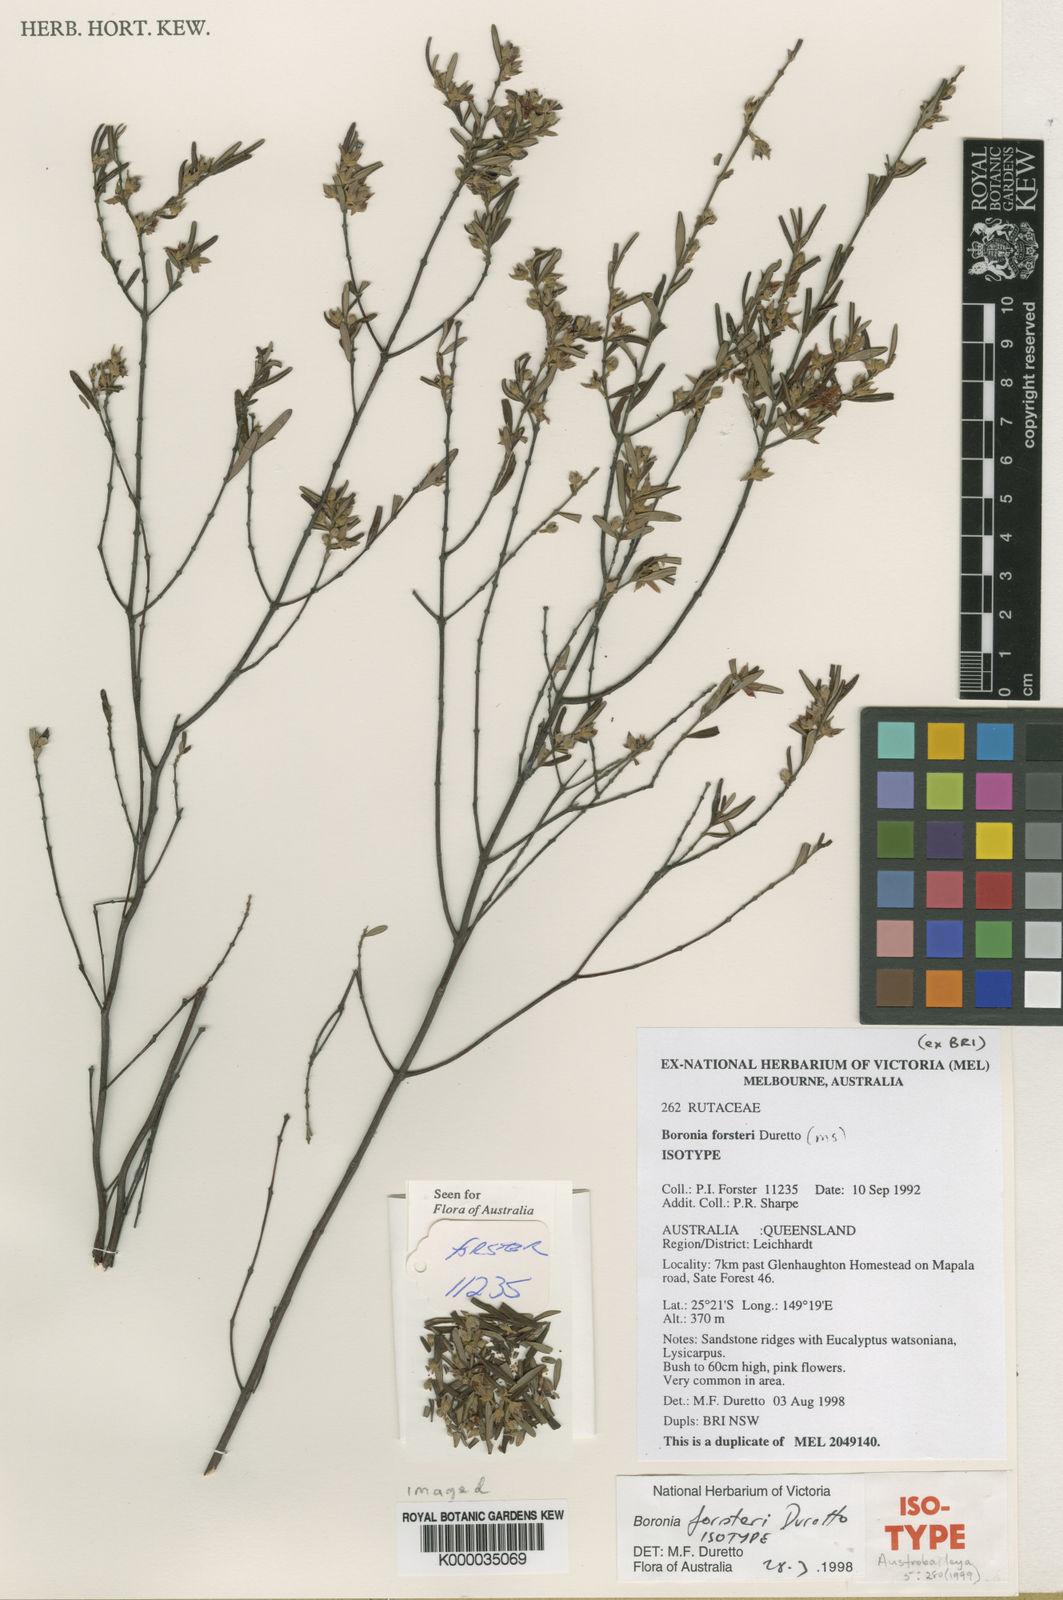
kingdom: Plantae
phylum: Tracheophyta
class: Magnoliopsida
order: Sapindales
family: Rutaceae
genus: Boronia
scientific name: Boronia forsteri
